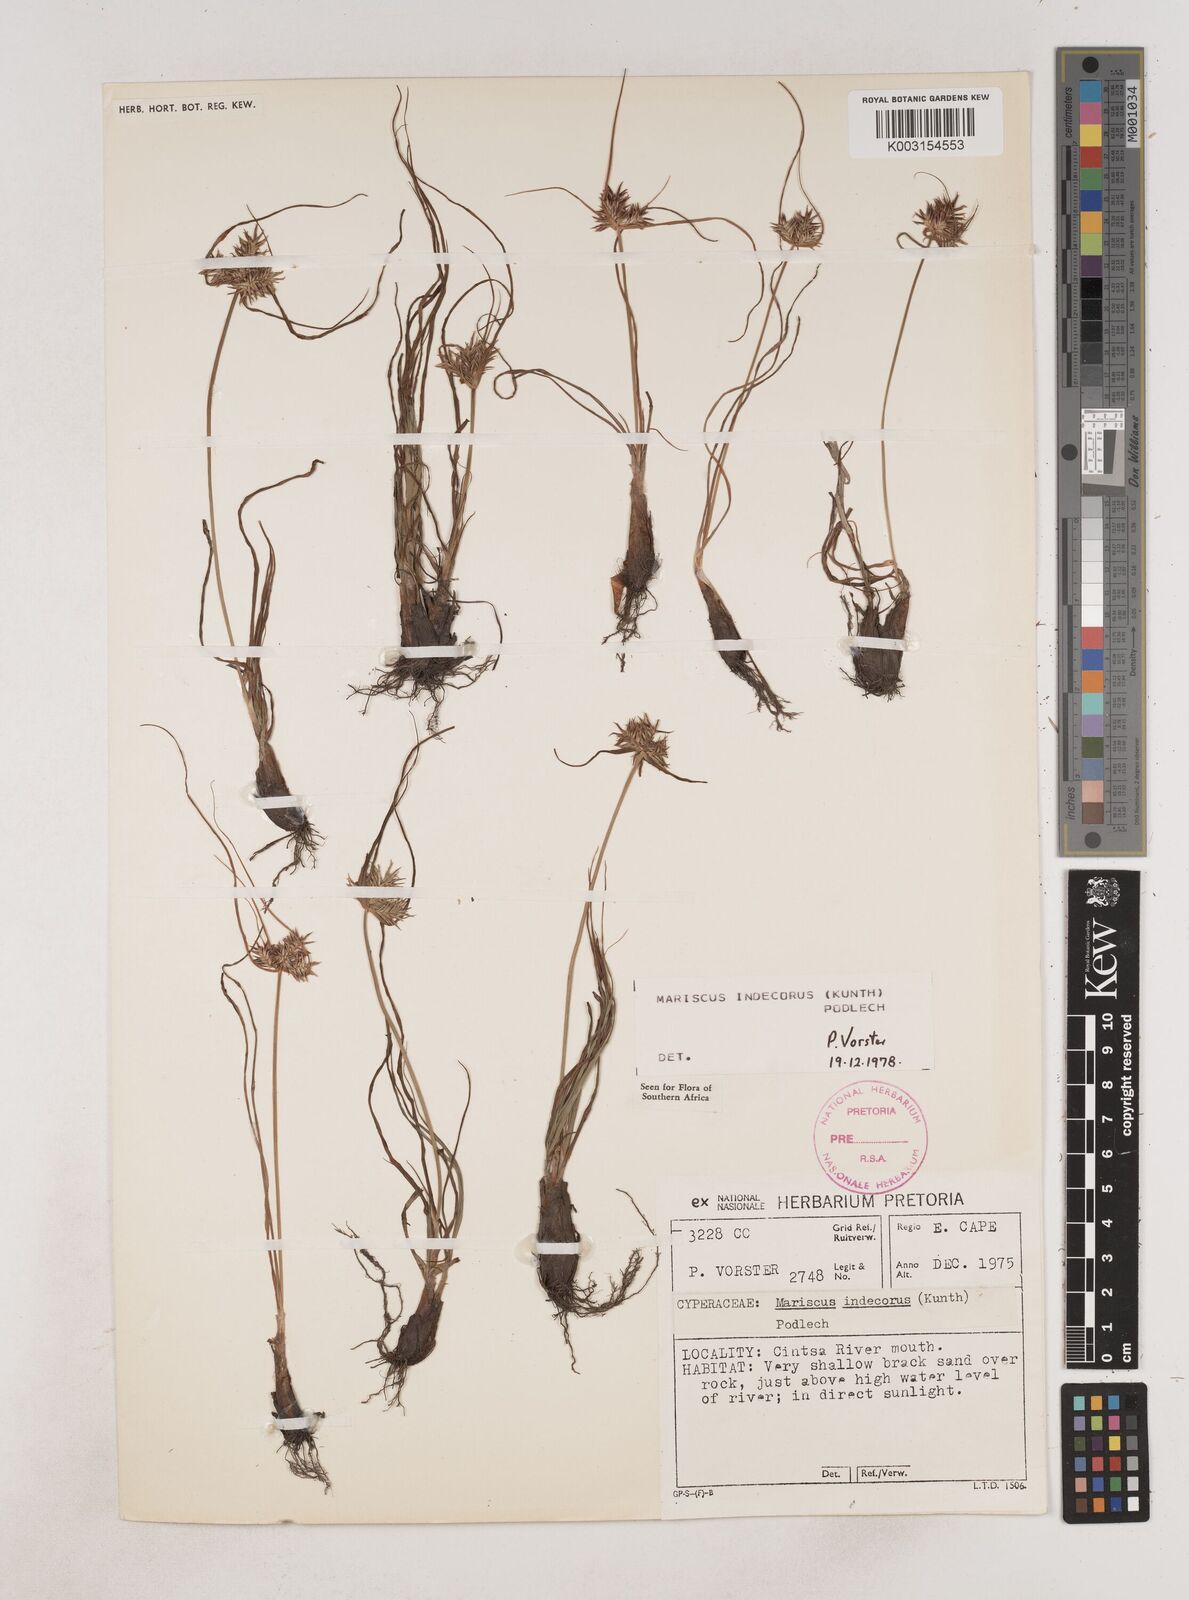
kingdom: Plantae
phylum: Tracheophyta
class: Liliopsida
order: Poales
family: Cyperaceae
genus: Cyperus
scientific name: Cyperus indecorus
